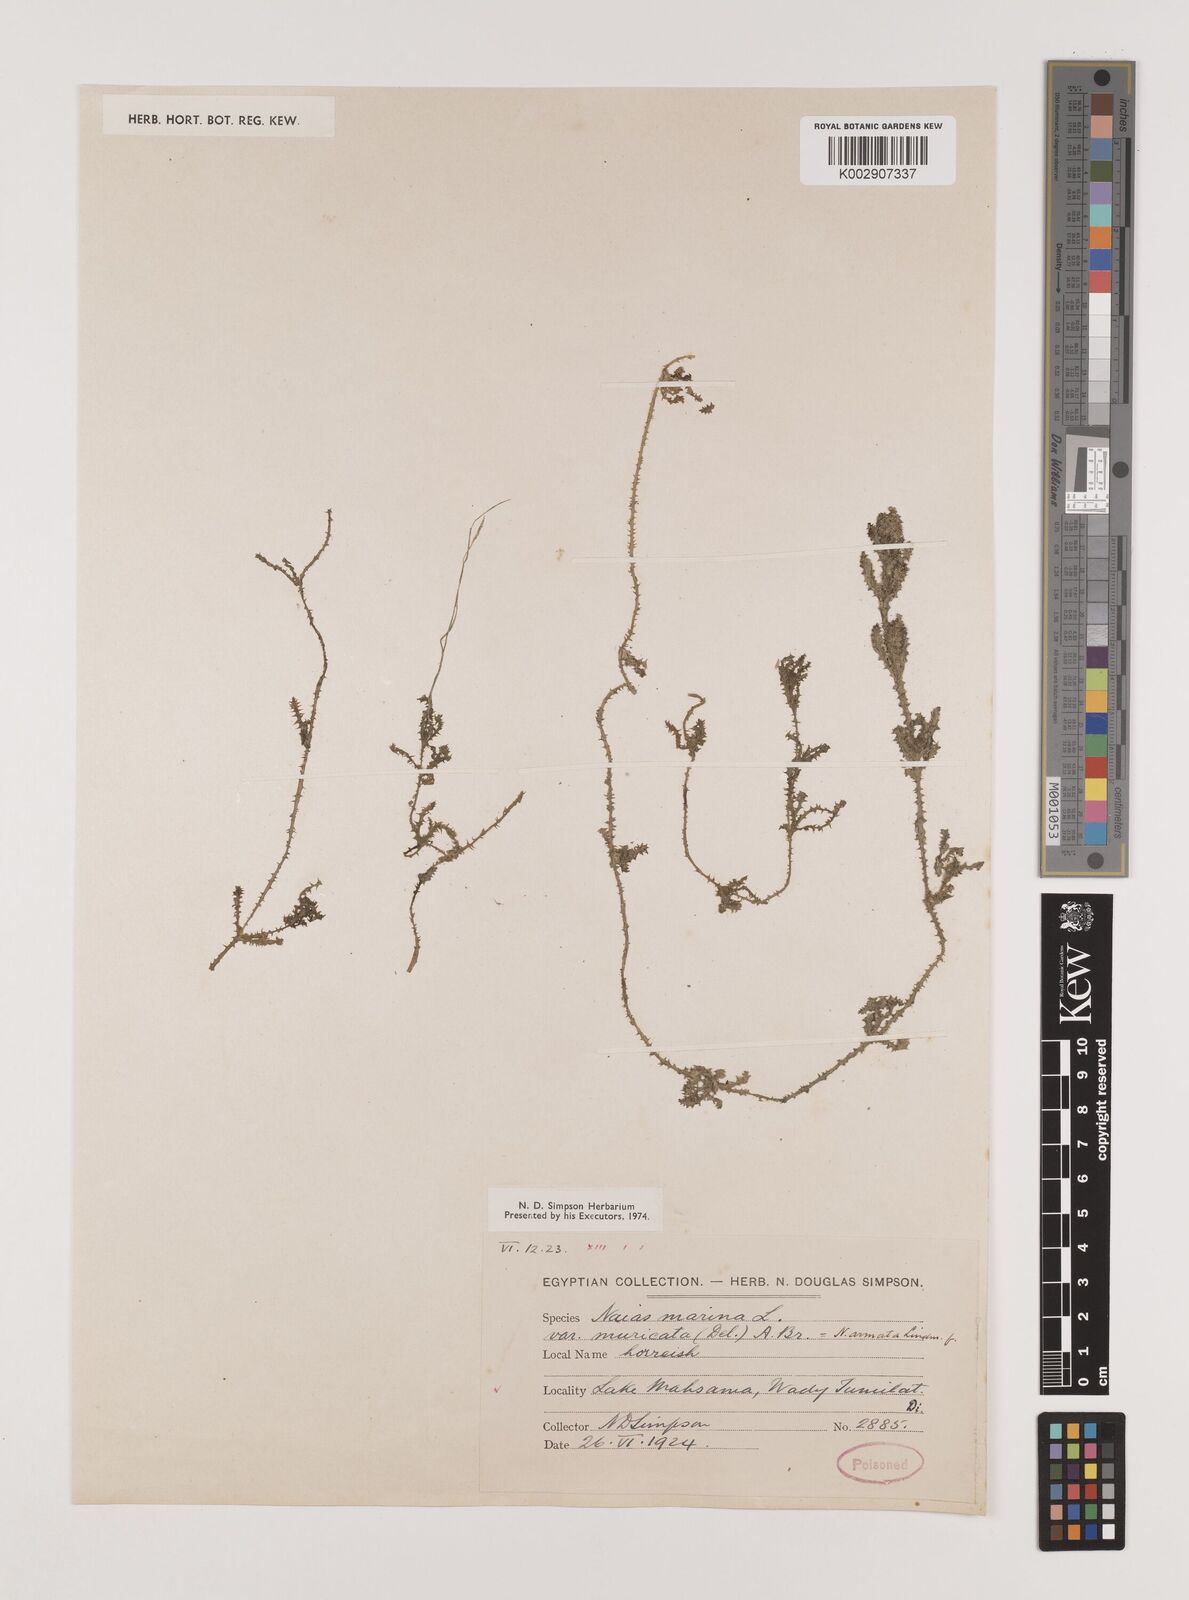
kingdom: Plantae
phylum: Tracheophyta
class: Liliopsida
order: Alismatales
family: Hydrocharitaceae
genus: Najas
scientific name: Najas marina
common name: Holly-leaved naiad
